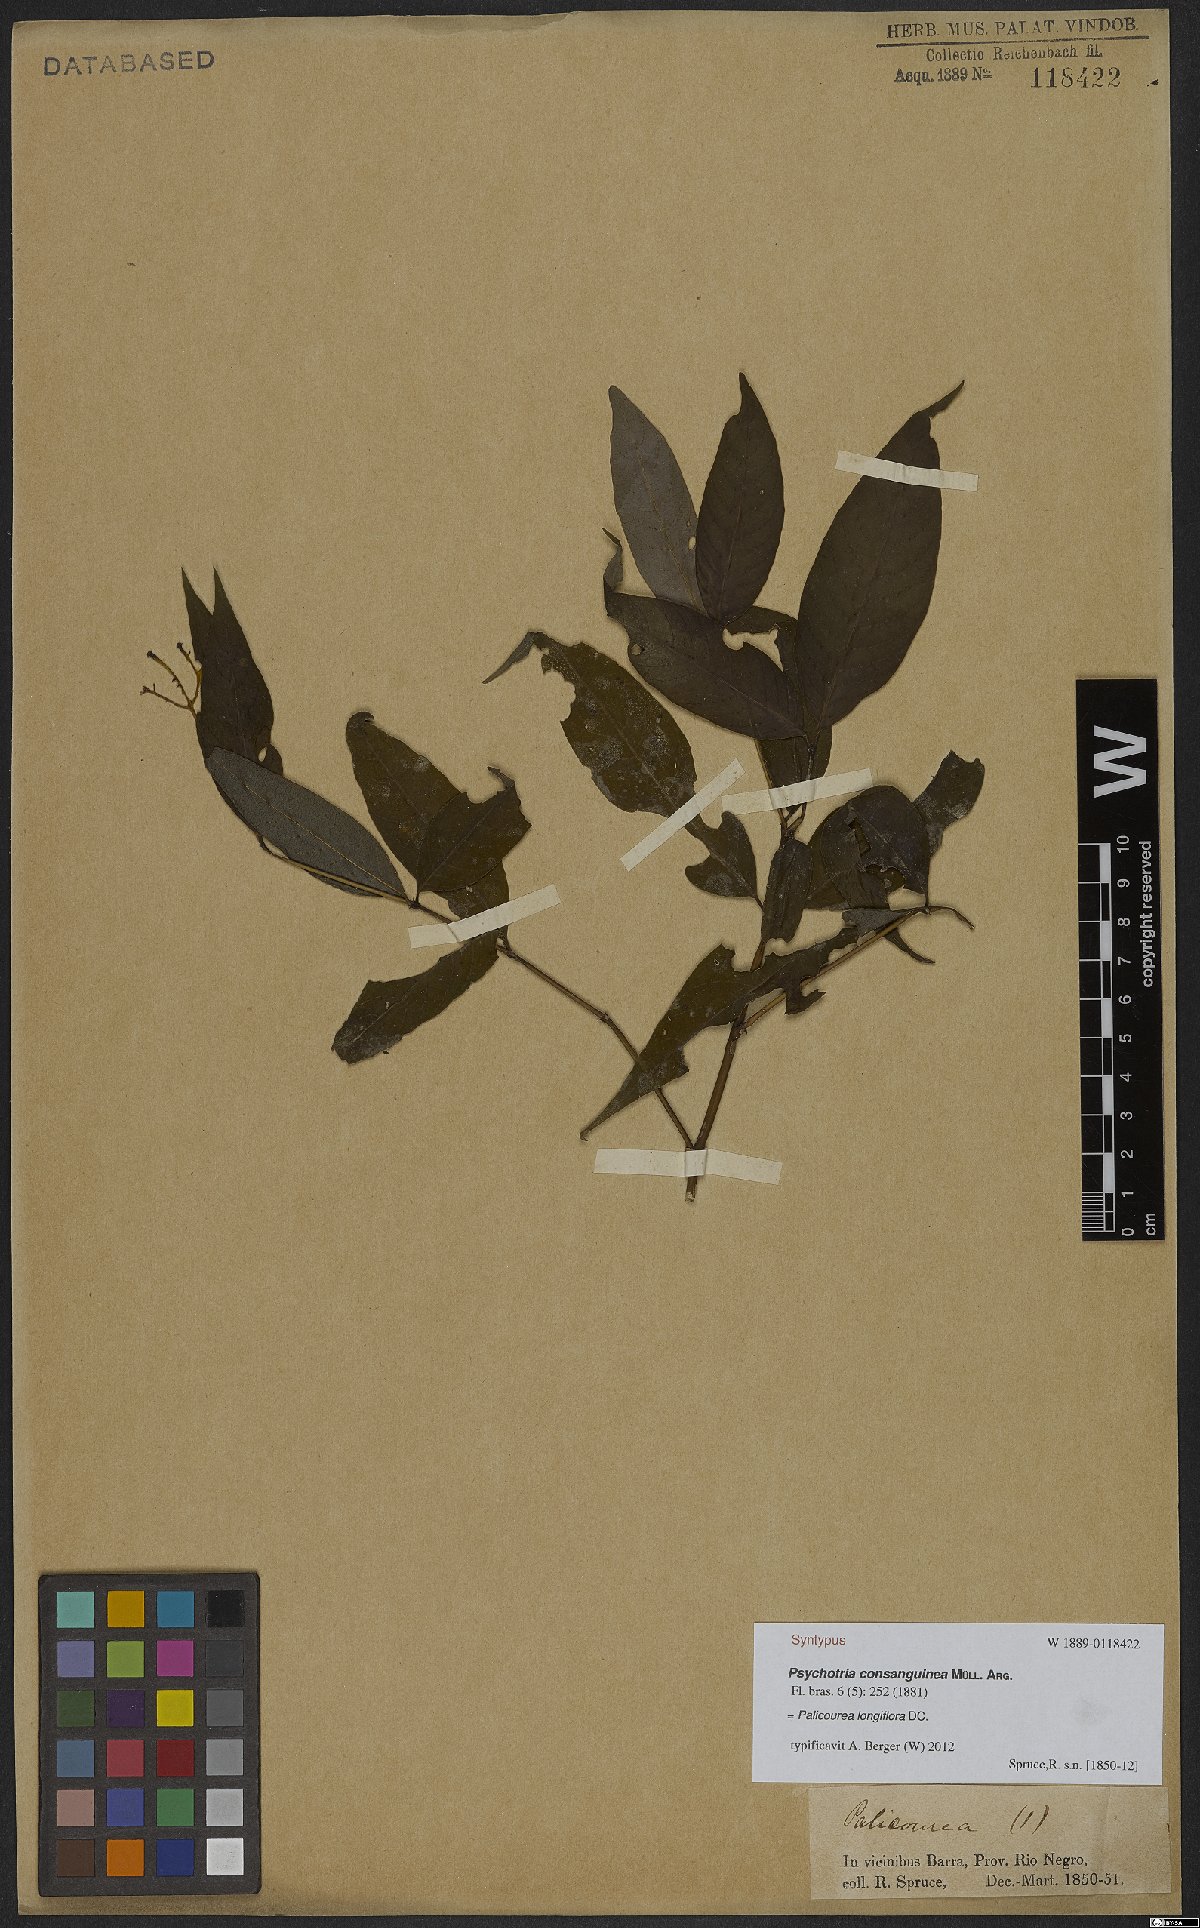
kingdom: Plantae
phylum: Tracheophyta
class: Magnoliopsida
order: Gentianales
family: Rubiaceae
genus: Palicourea
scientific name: Palicourea longiflora
